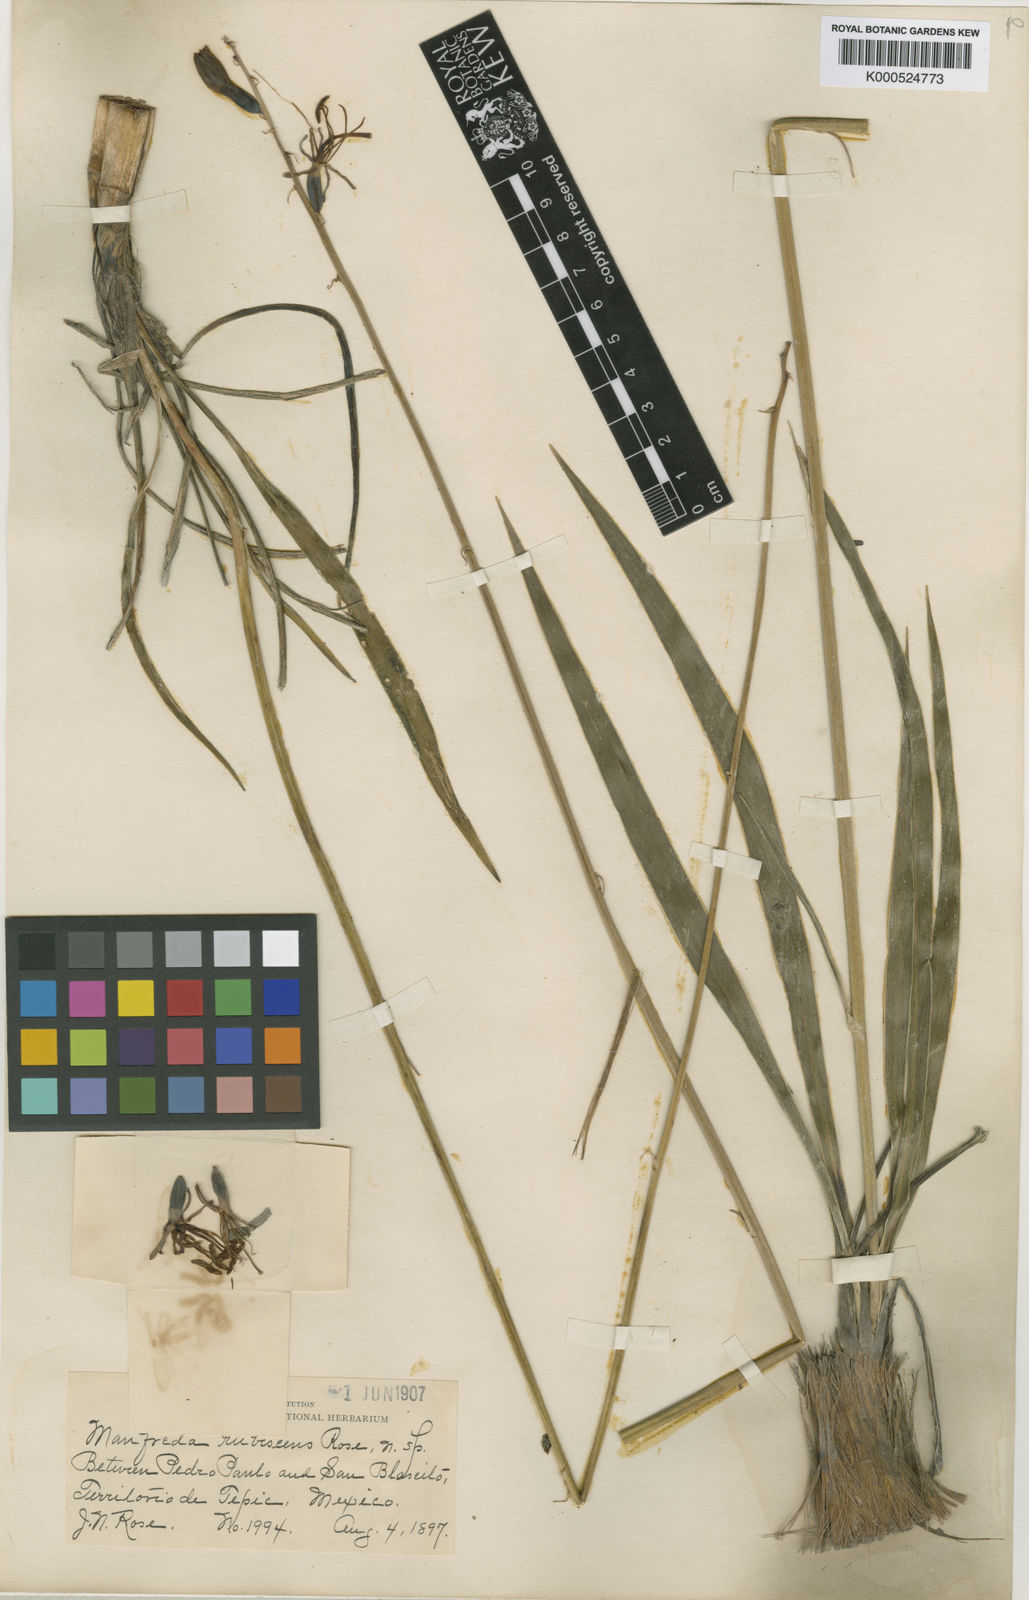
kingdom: Plantae
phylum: Tracheophyta
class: Liliopsida
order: Asparagales
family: Asparagaceae
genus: Agave
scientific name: Agave pratensis
